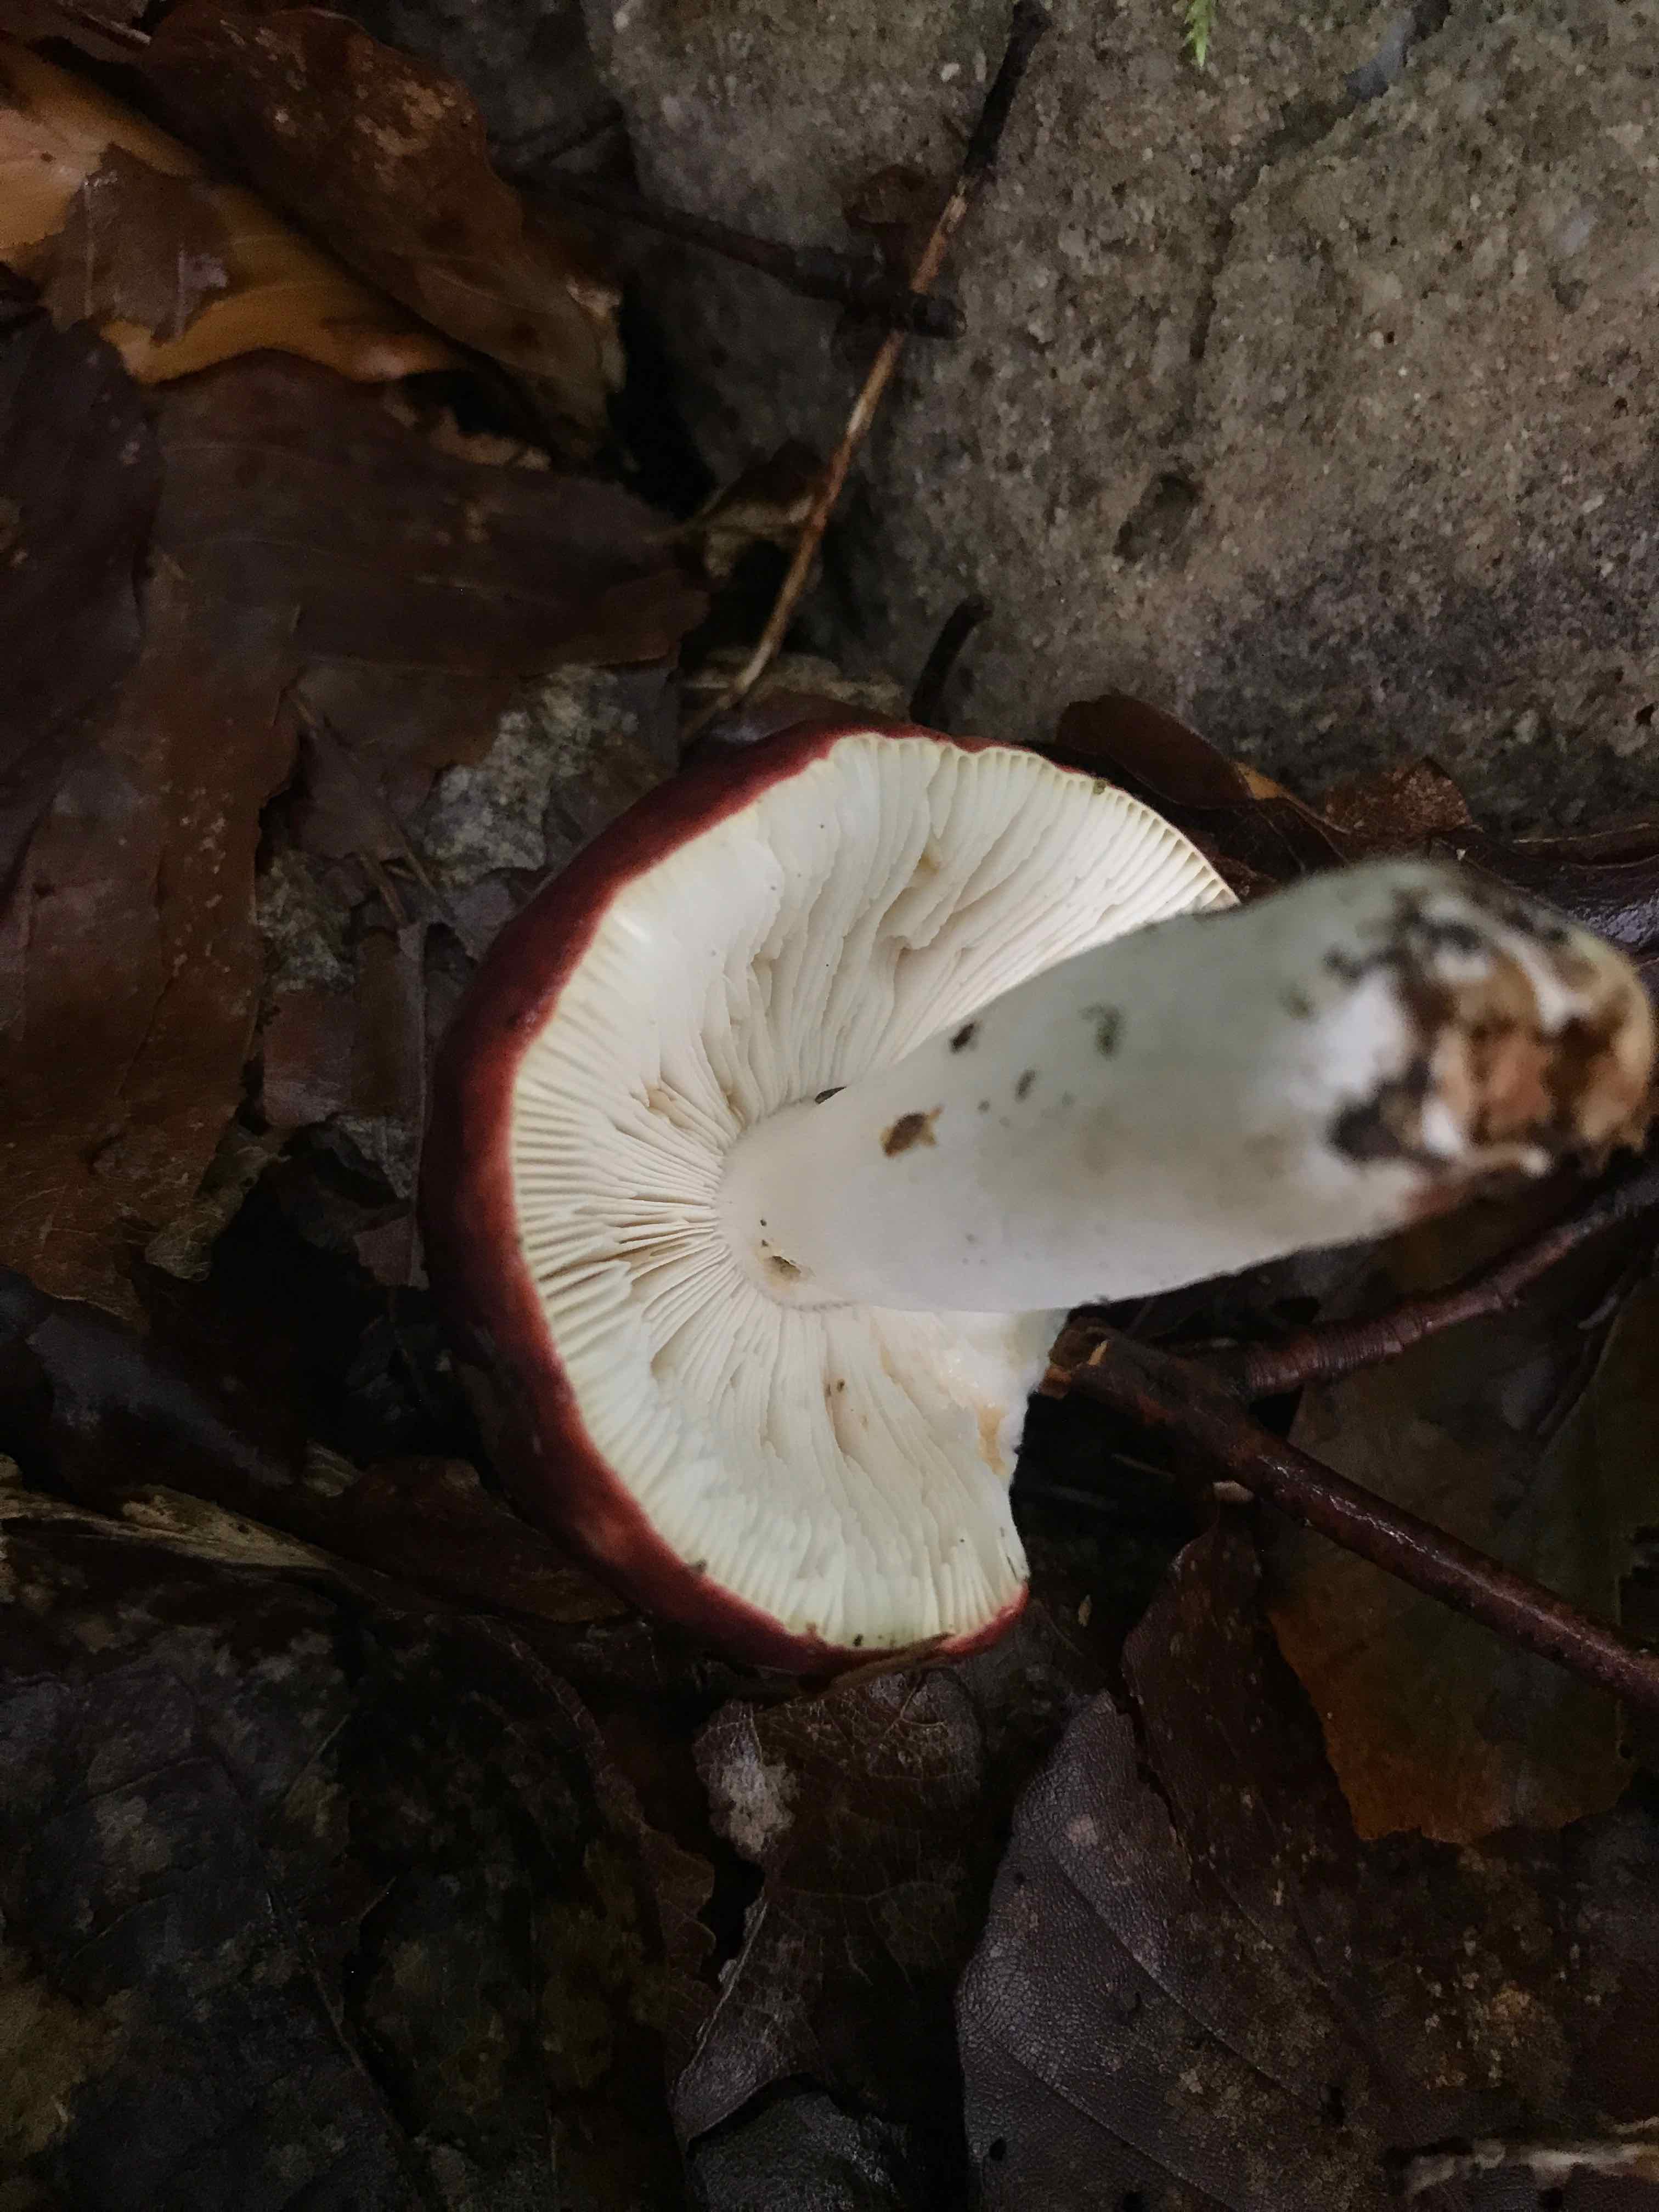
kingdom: Fungi
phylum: Basidiomycota
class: Agaricomycetes
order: Russulales
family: Russulaceae
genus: Russula
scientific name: Russula
